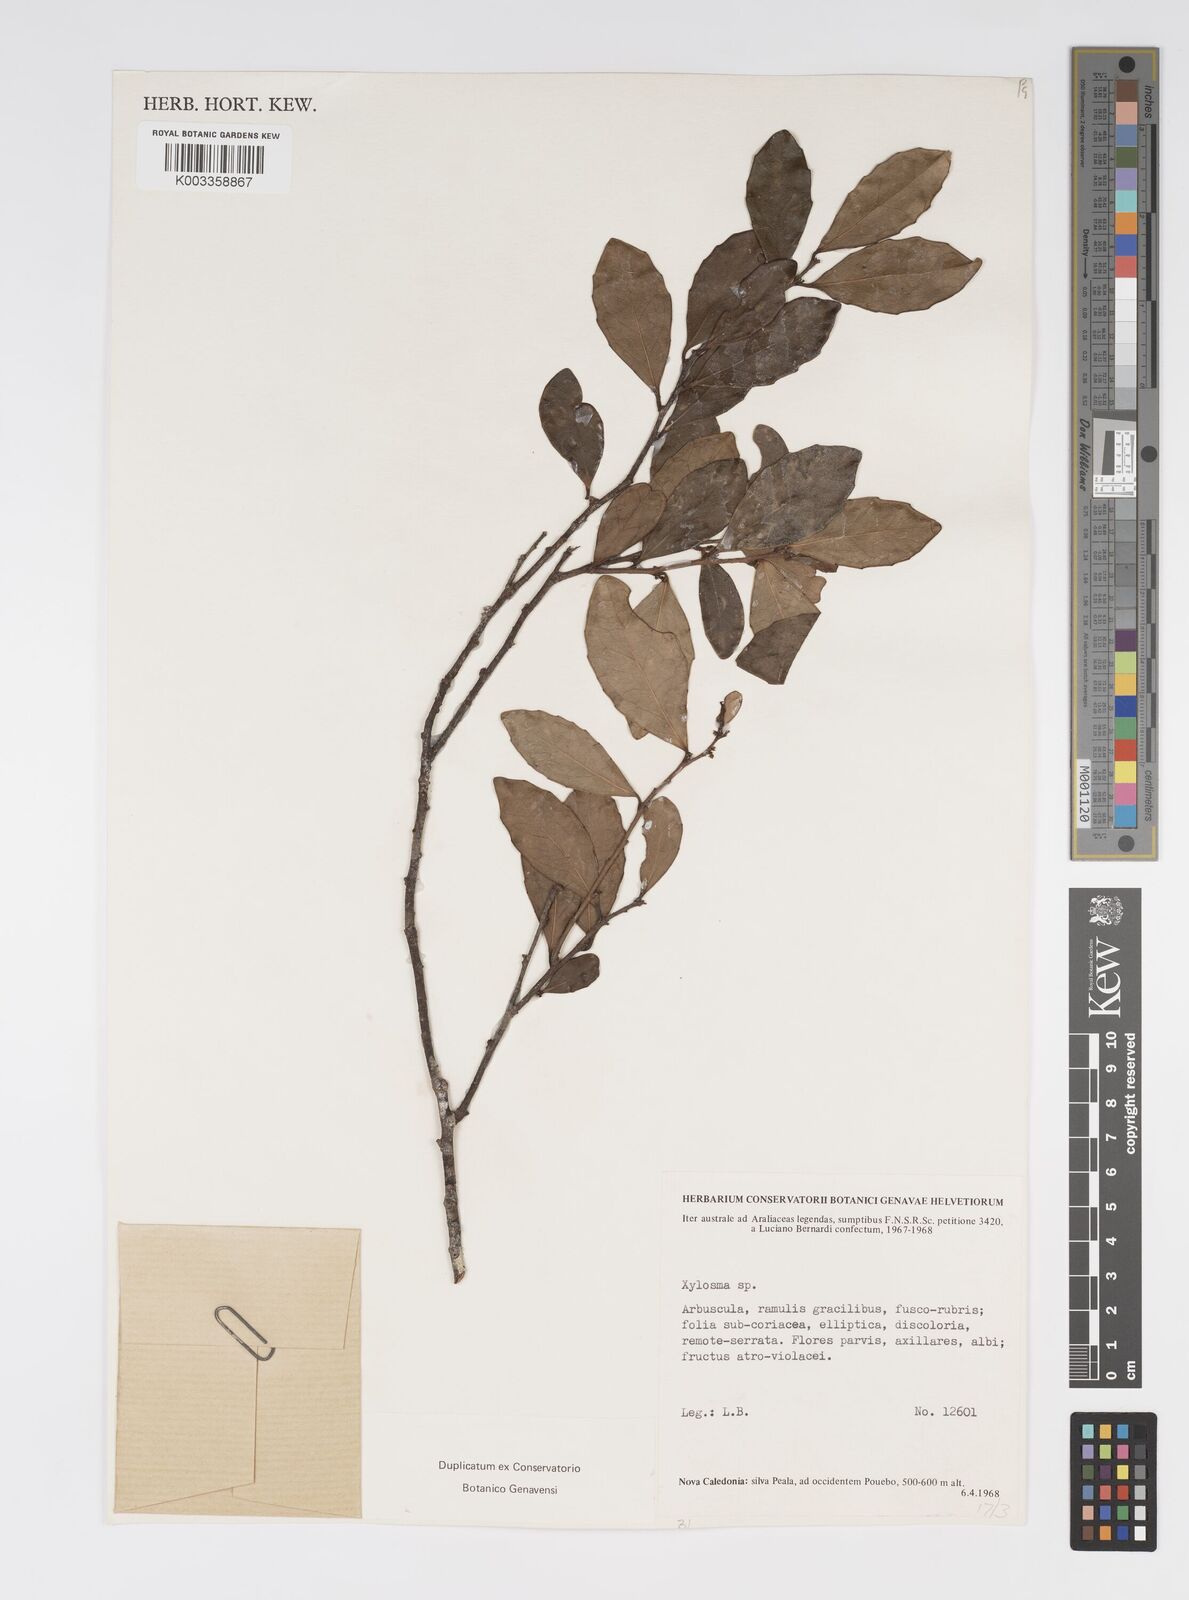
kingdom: Plantae
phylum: Tracheophyta
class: Magnoliopsida
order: Malpighiales
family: Salicaceae
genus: Xylosma
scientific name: Xylosma
